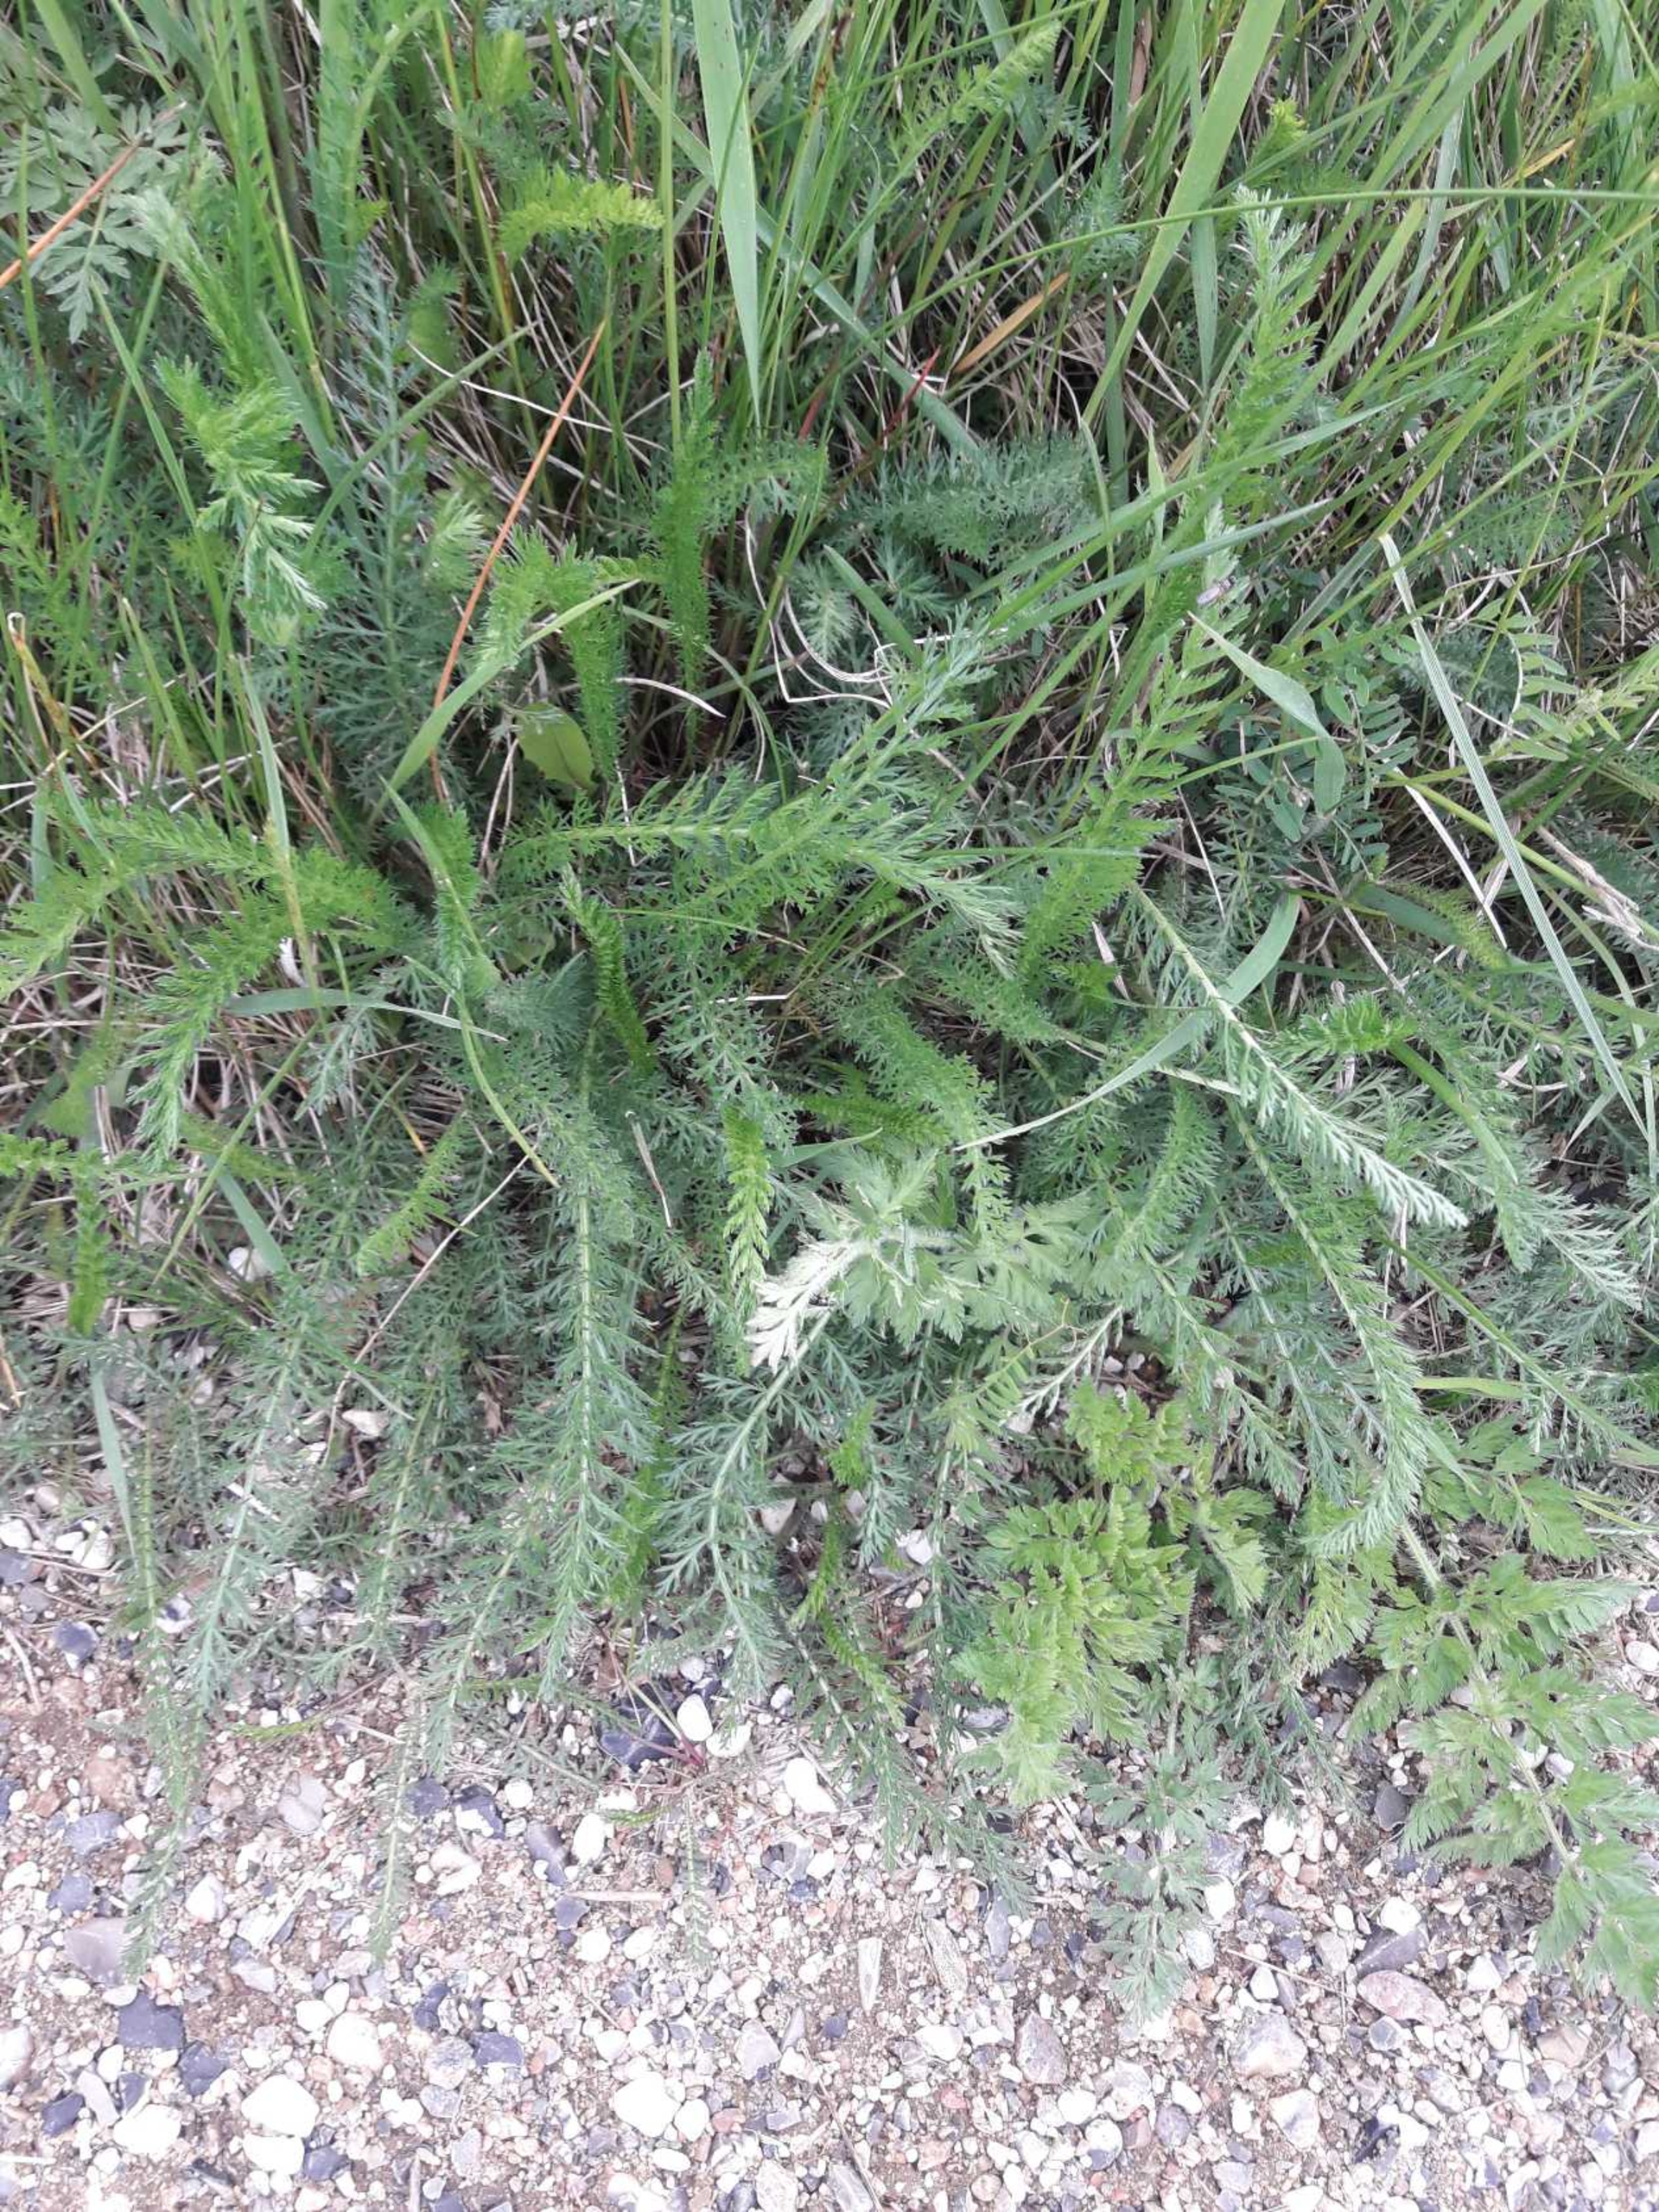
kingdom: Plantae
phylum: Tracheophyta
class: Magnoliopsida
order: Asterales
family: Asteraceae
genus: Achillea
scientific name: Achillea millefolium
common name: Almindelig røllike
